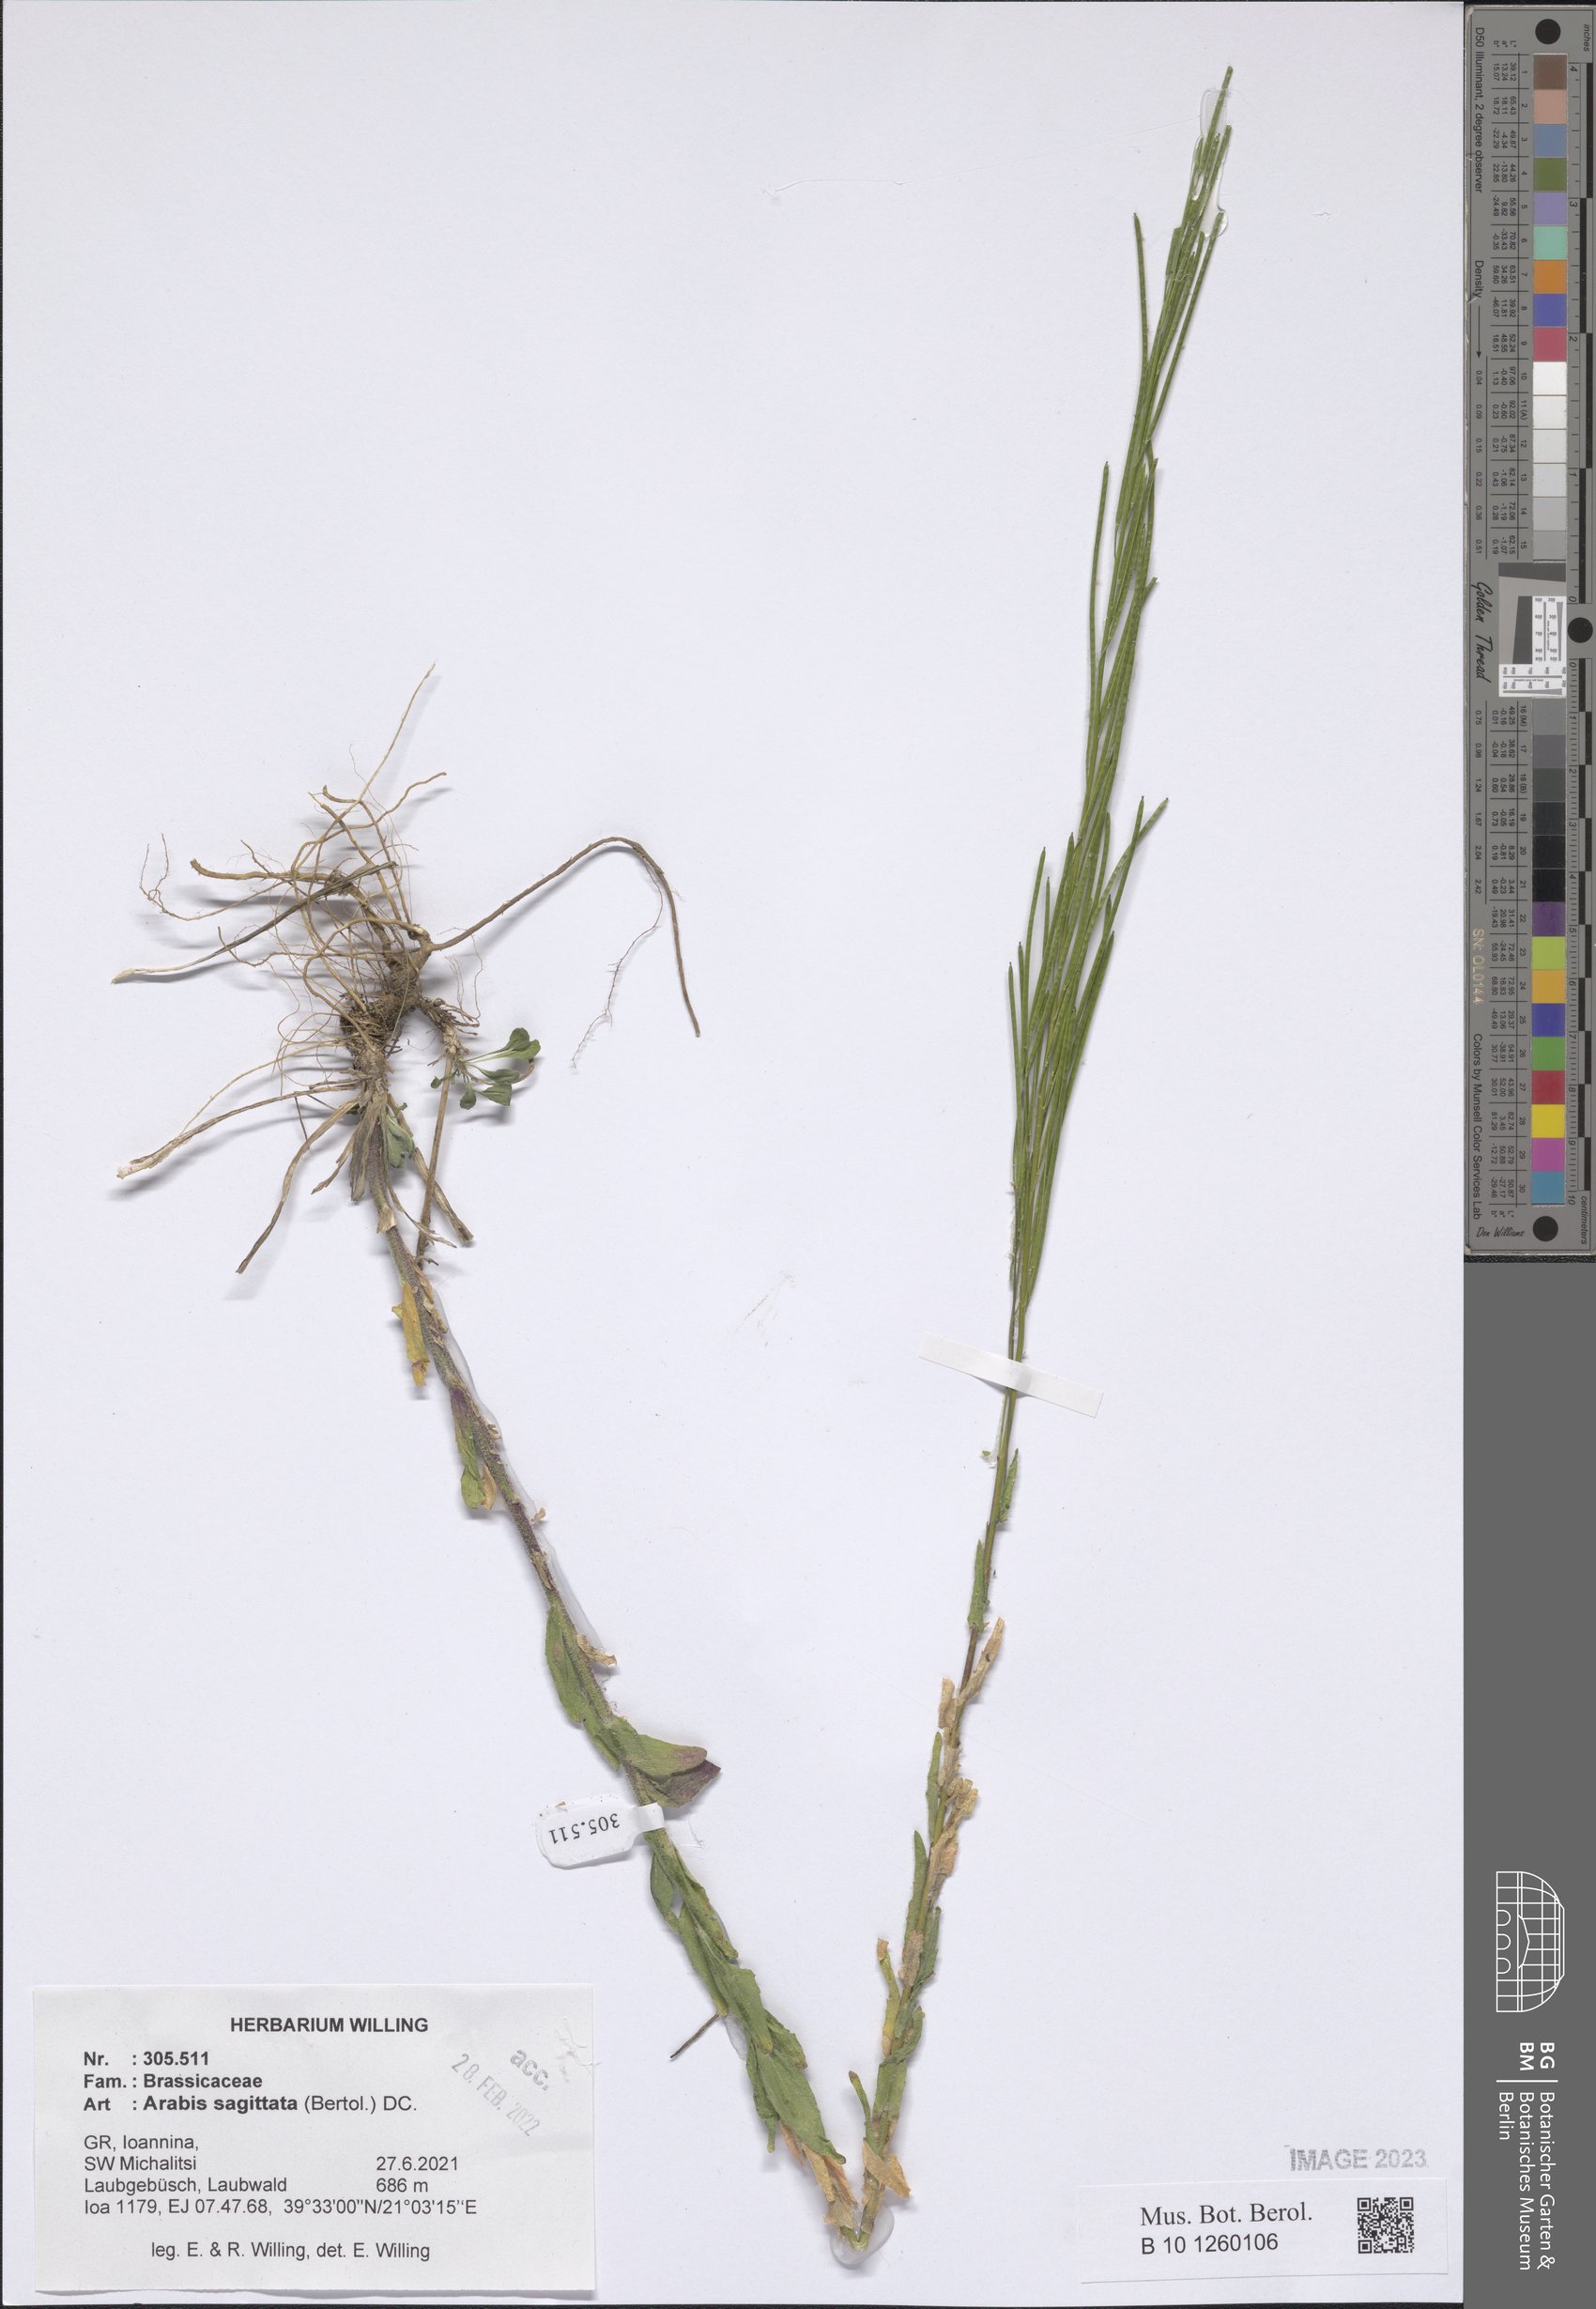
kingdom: Plantae
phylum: Tracheophyta
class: Magnoliopsida
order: Brassicales
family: Brassicaceae
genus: Arabis
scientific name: Arabis sagittata
